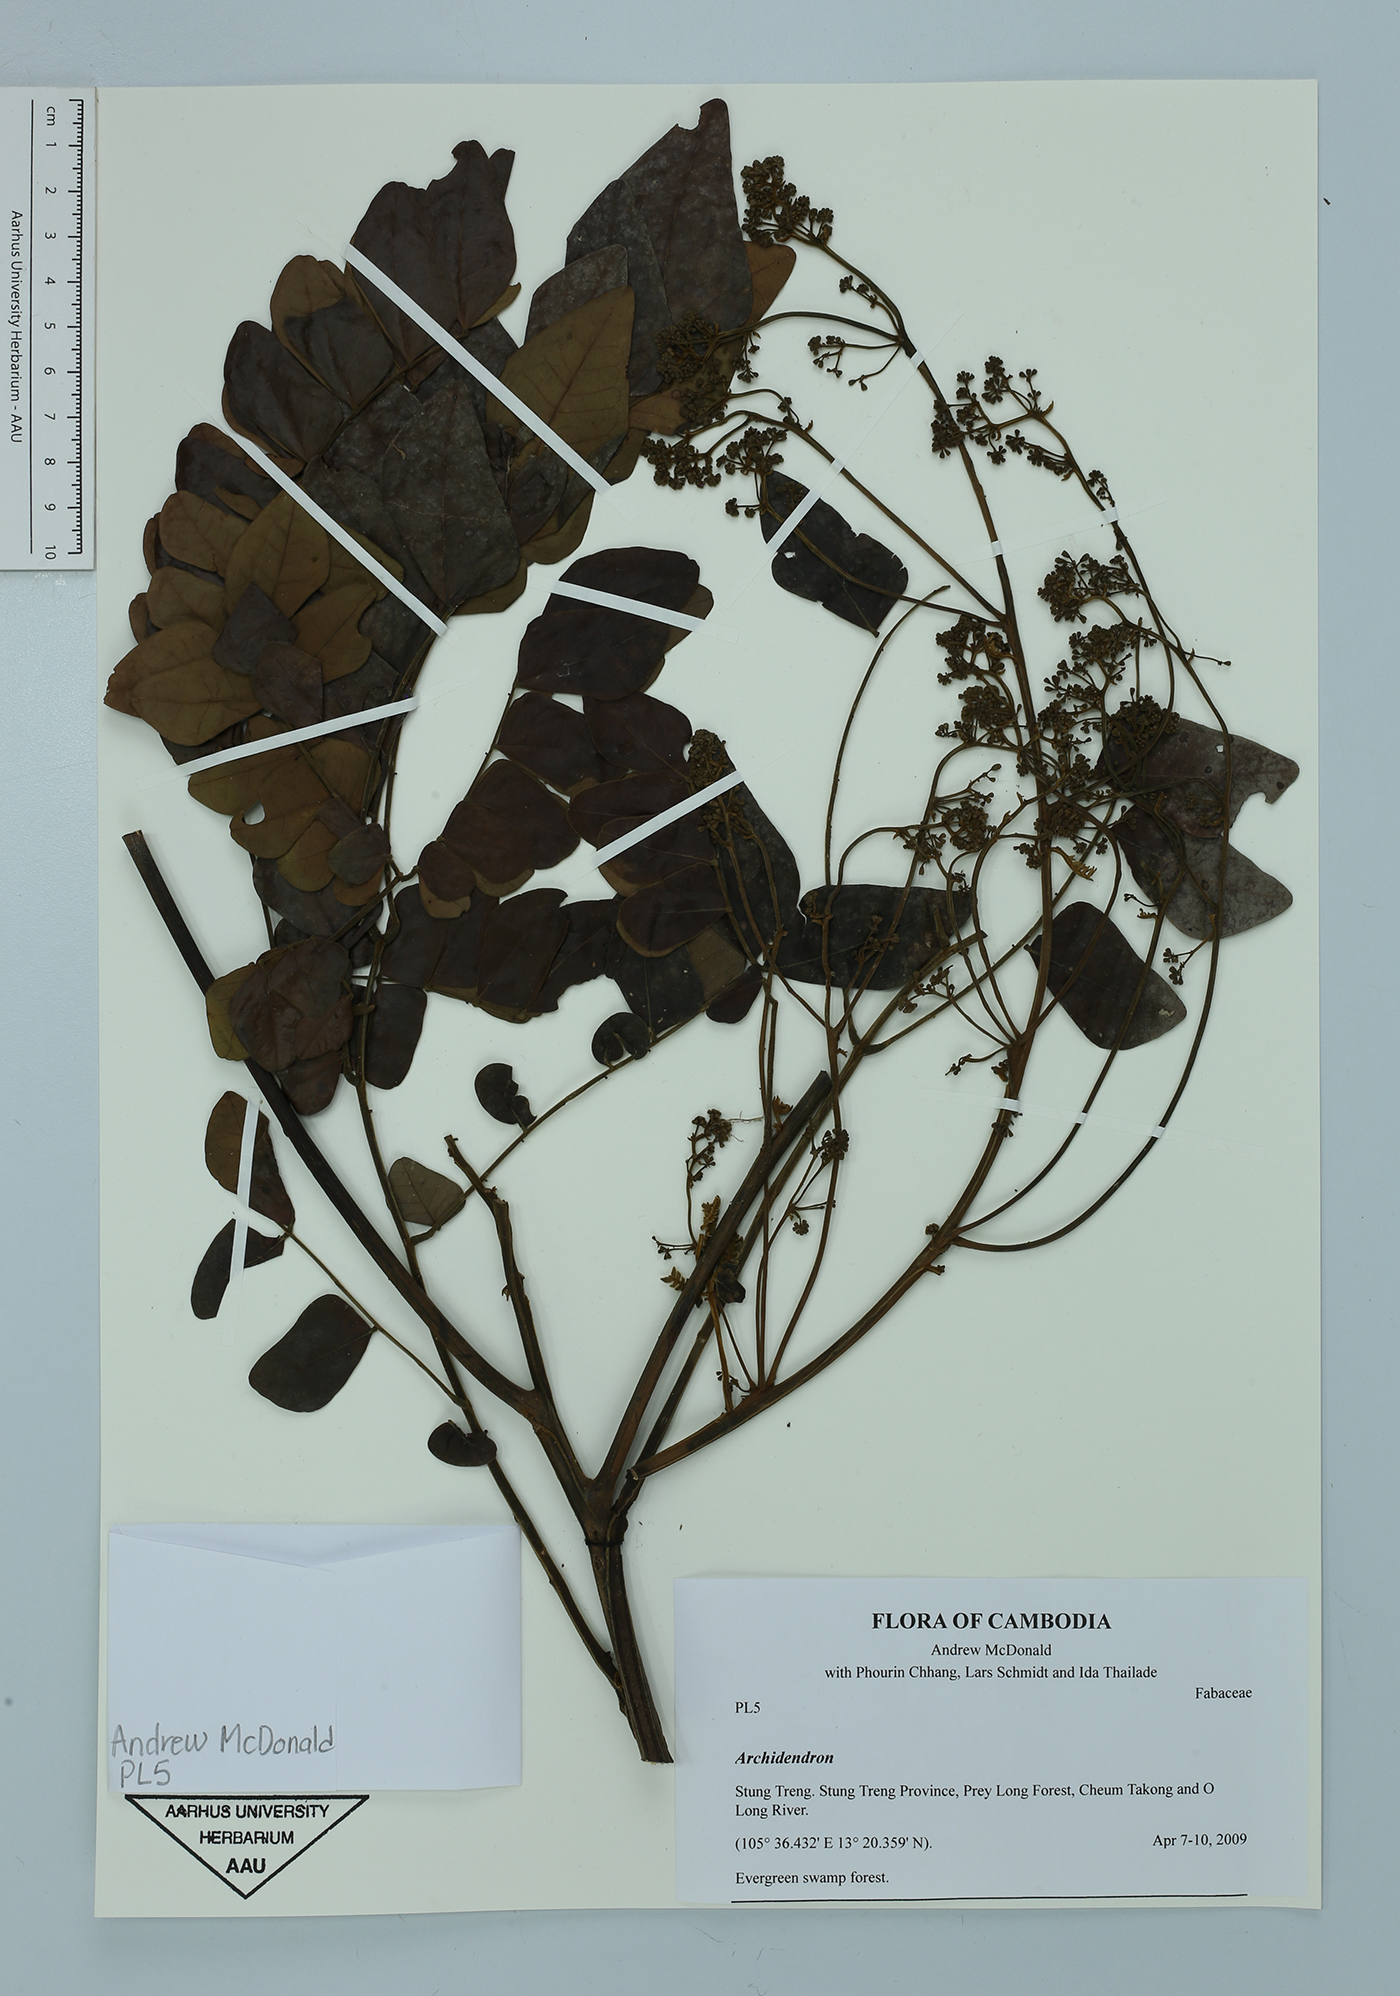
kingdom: Plantae
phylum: Tracheophyta
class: Magnoliopsida
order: Fabales
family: Fabaceae
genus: Archidendron
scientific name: Archidendron
